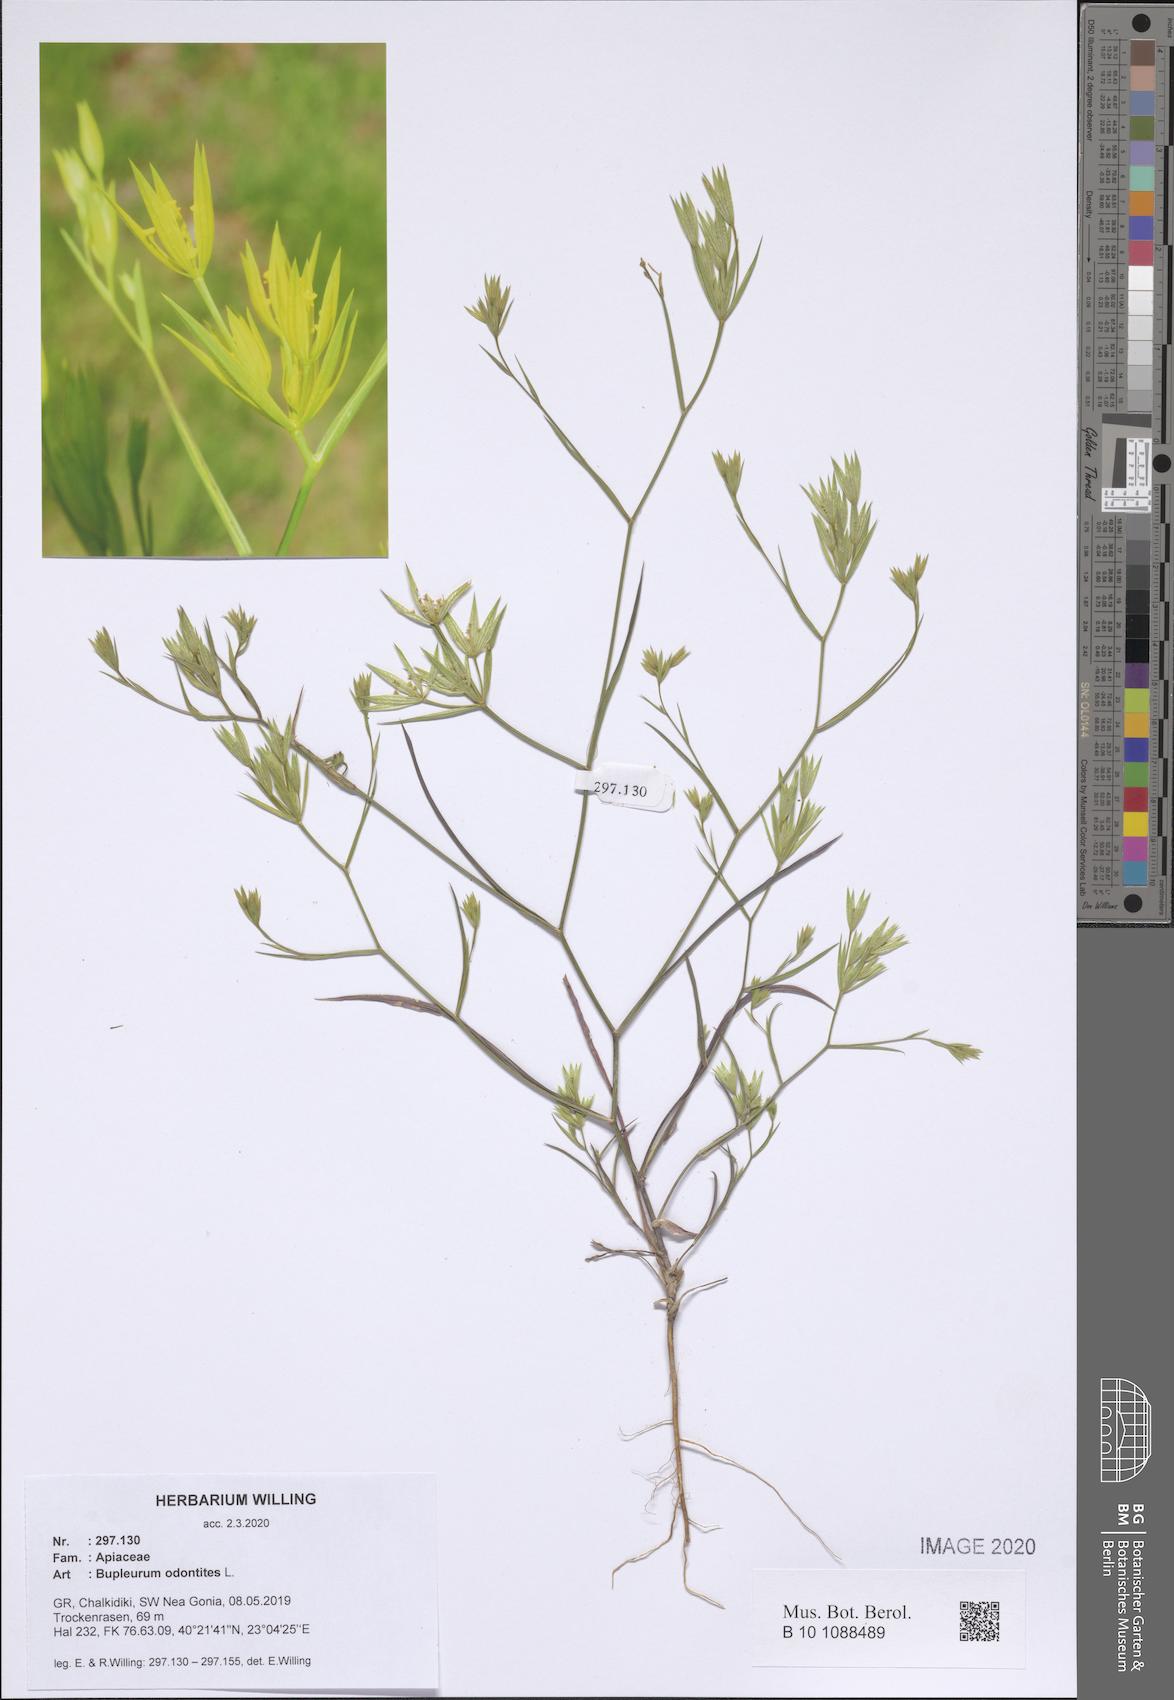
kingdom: Plantae
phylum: Tracheophyta
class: Magnoliopsida
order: Apiales
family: Apiaceae
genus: Bupleurum
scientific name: Bupleurum odontites
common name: Narrowleaf thorow wax
